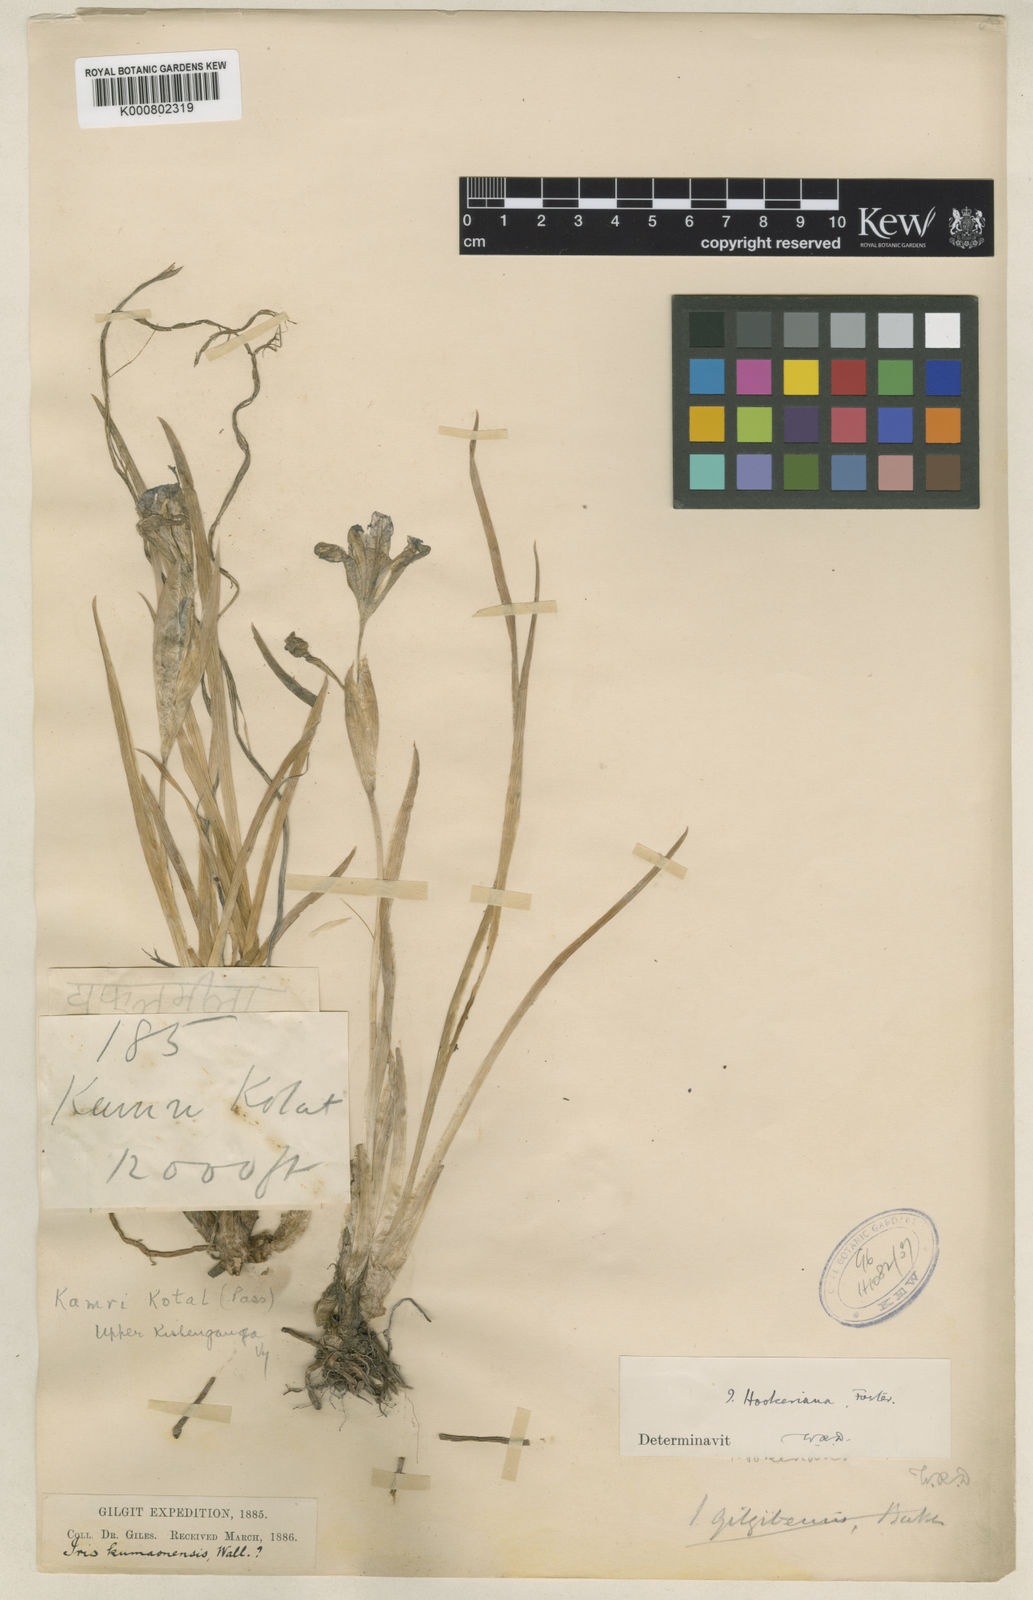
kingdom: Plantae
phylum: Tracheophyta
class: Liliopsida
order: Asparagales
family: Iridaceae
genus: Iris
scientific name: Iris hookeriana
